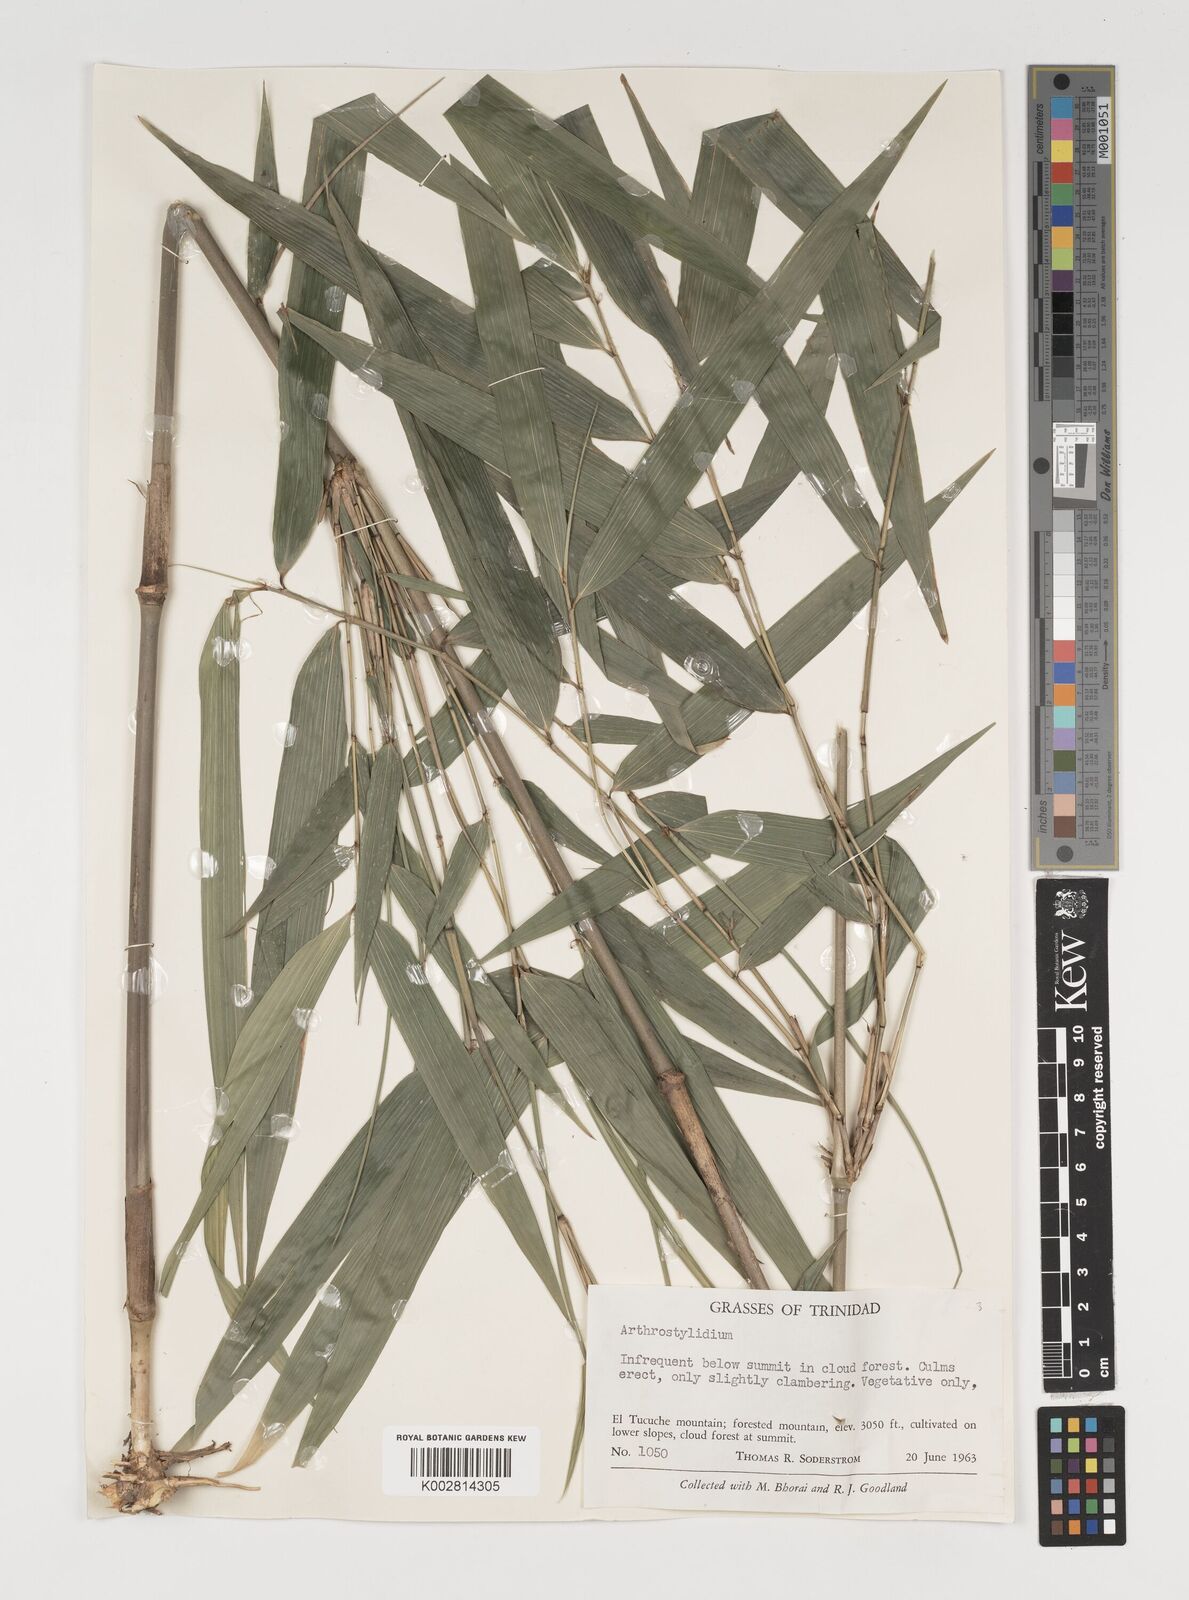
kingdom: Plantae
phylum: Tracheophyta
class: Liliopsida
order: Poales
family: Poaceae
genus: Arthrostylidium
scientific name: Arthrostylidium
